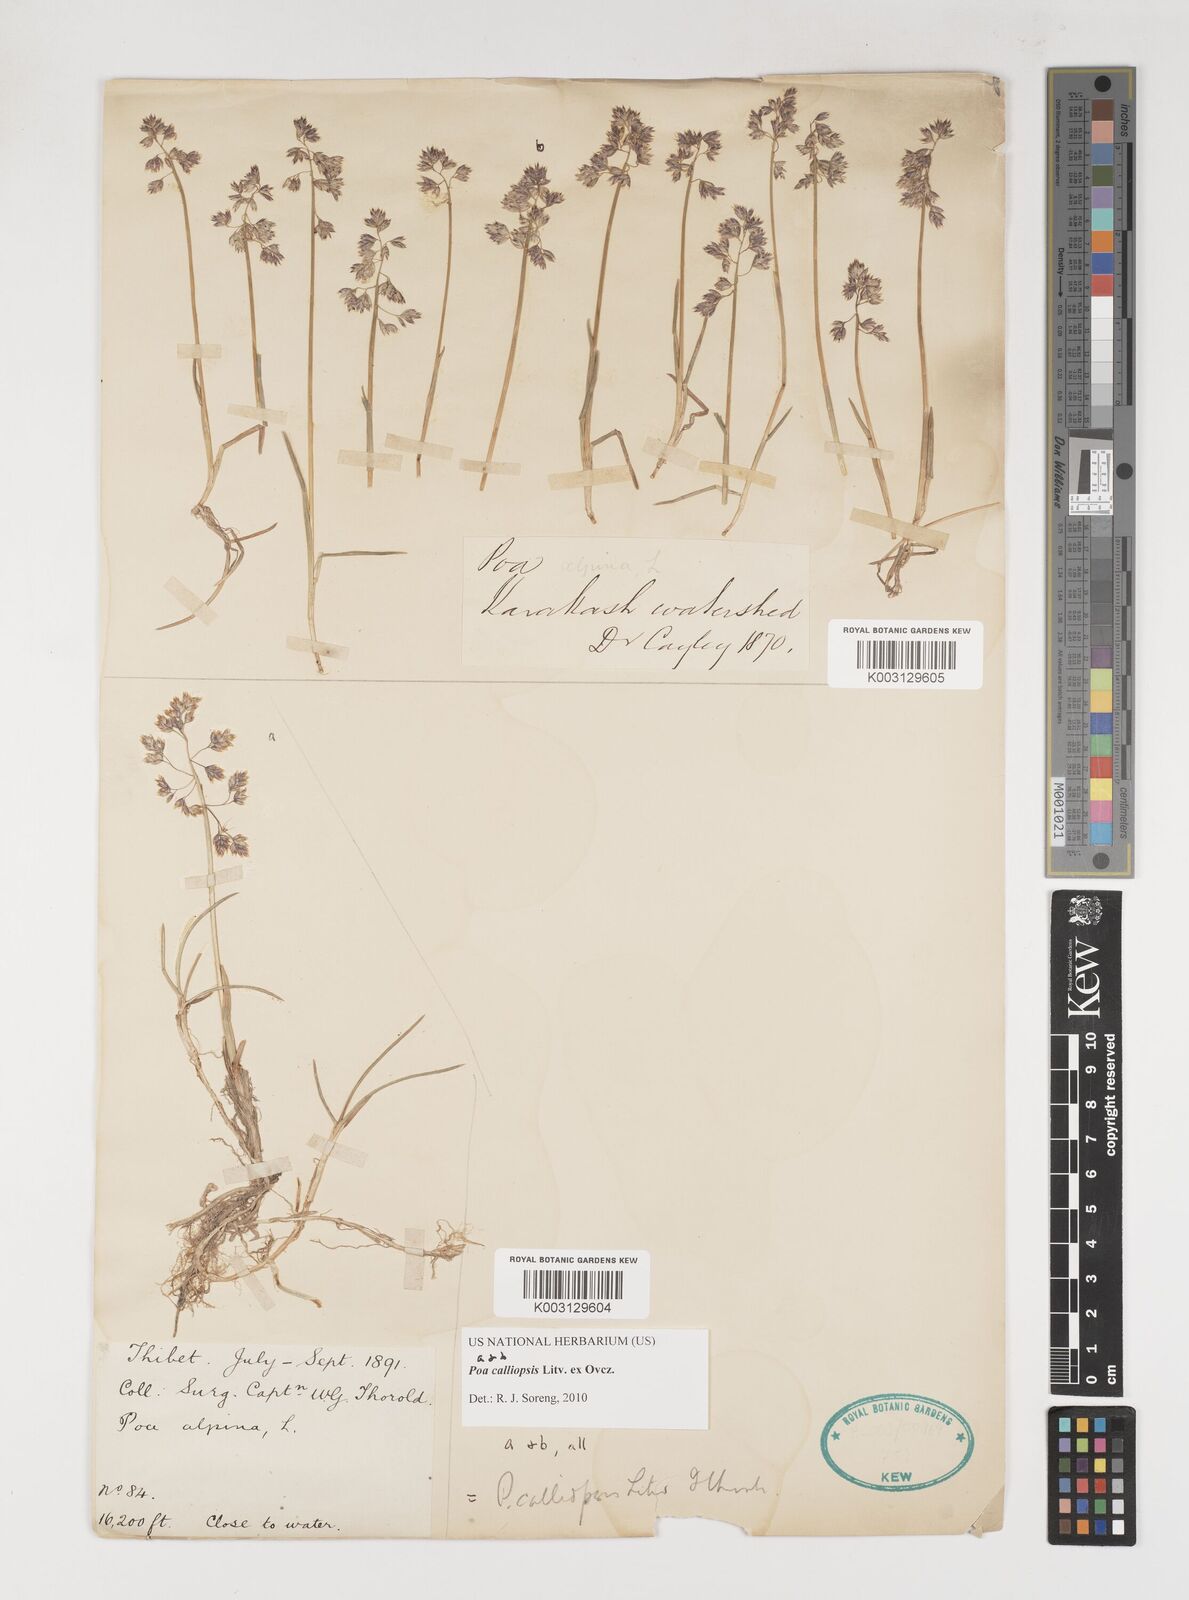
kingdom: Plantae
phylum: Tracheophyta
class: Liliopsida
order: Poales
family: Poaceae
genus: Poa
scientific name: Poa calliopsis
